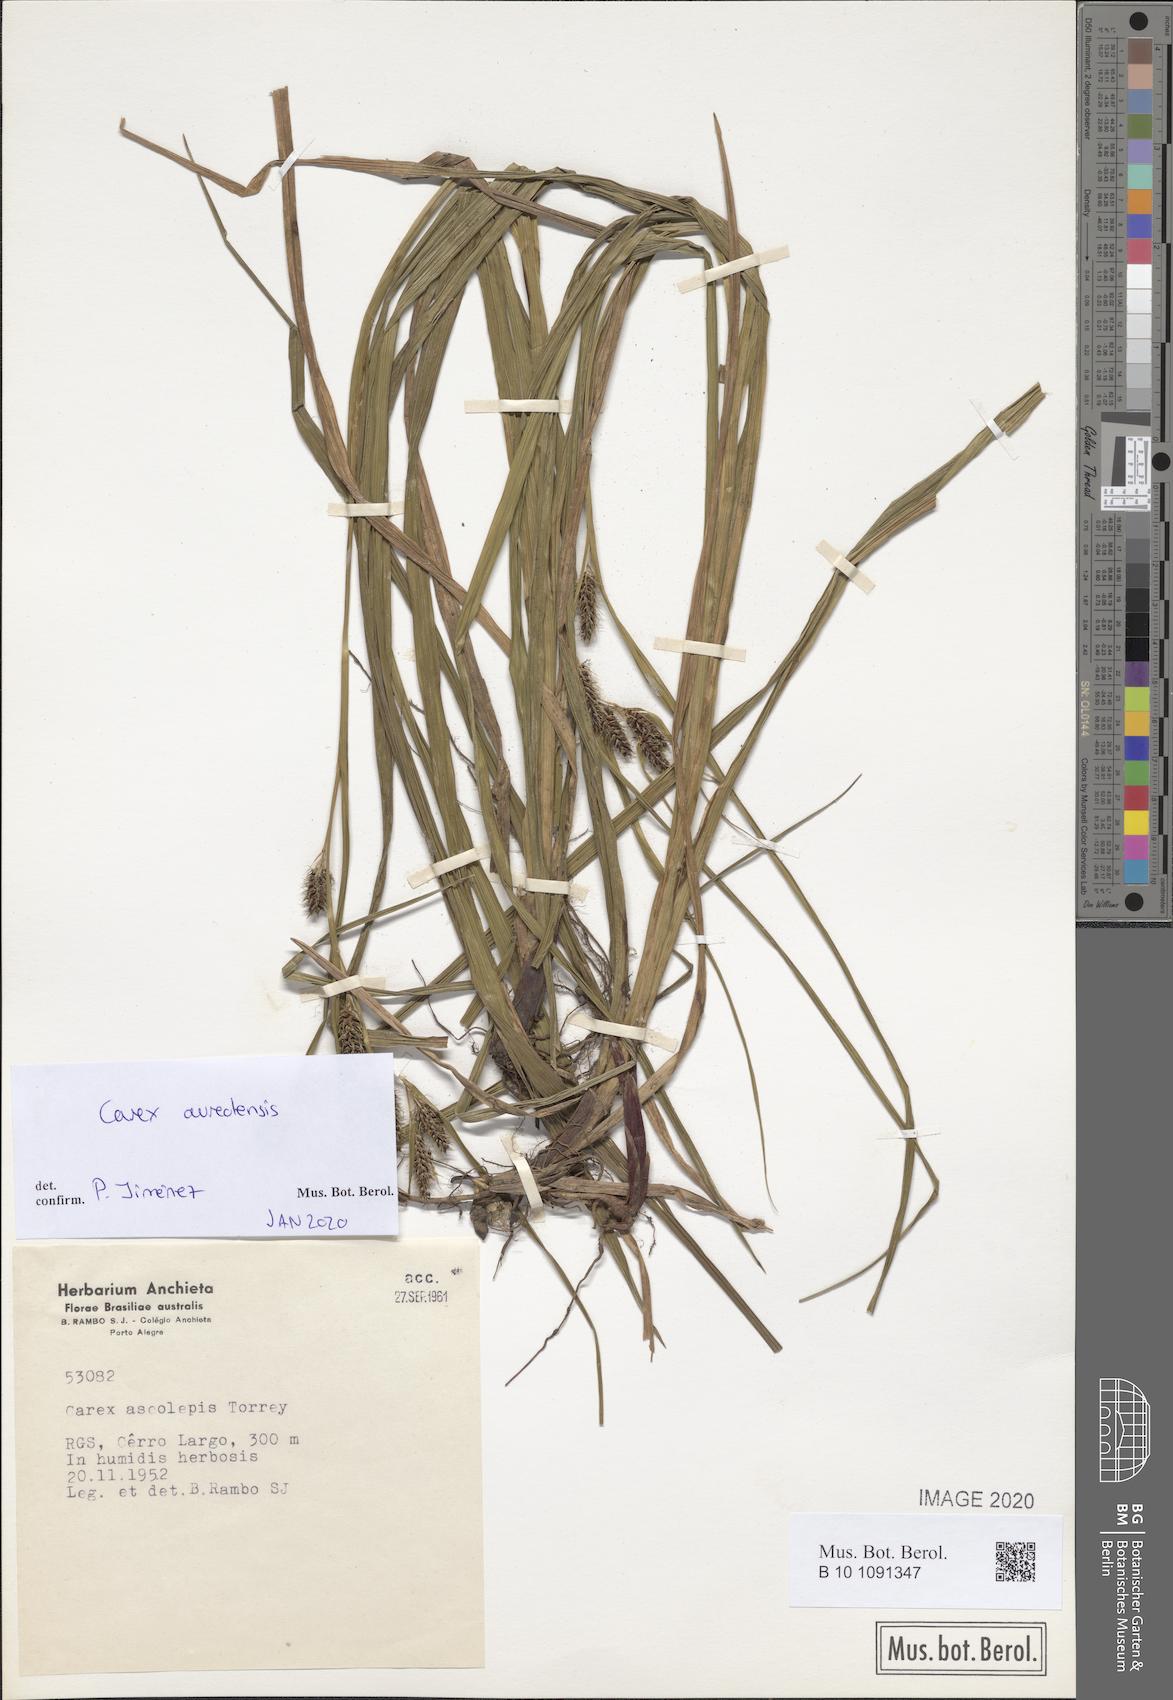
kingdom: Plantae
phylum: Tracheophyta
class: Liliopsida
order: Poales
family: Cyperaceae
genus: Carex
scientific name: Carex aureolensis
